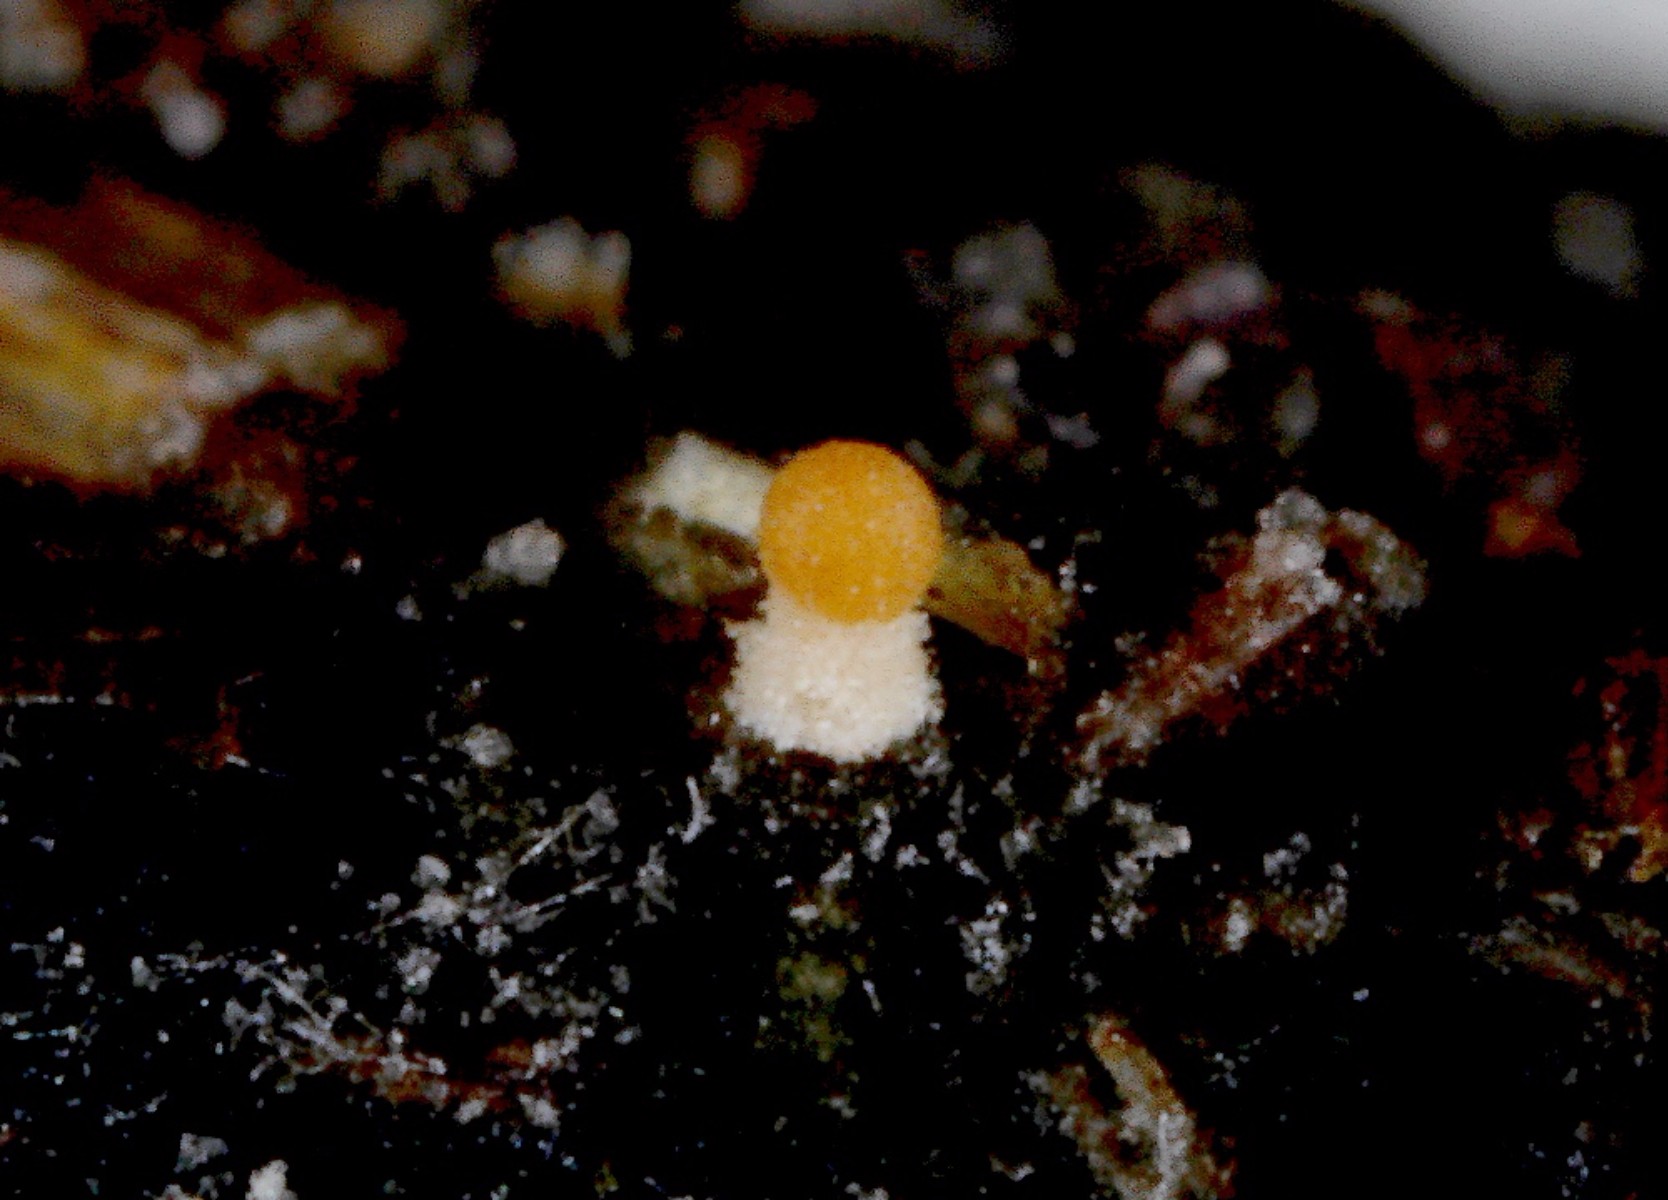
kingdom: Fungi
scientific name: Fungi
